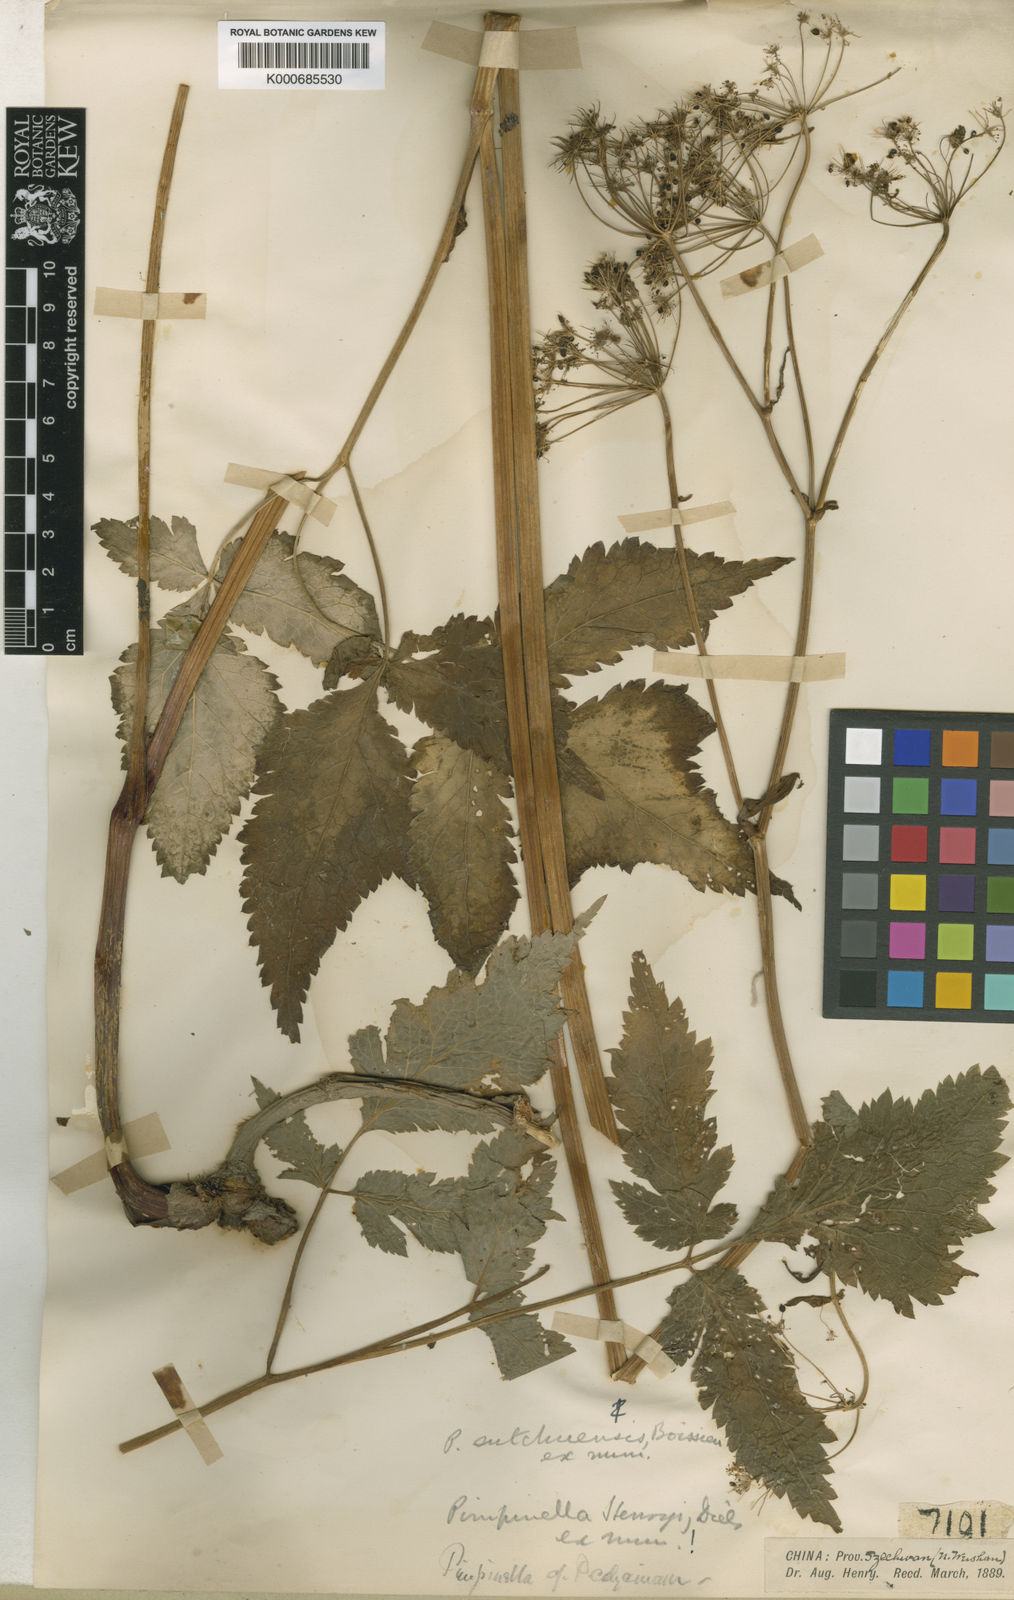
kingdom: Plantae
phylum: Tracheophyta
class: Magnoliopsida
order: Apiales
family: Apiaceae
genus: Pimpinella
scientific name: Pimpinella henryi
